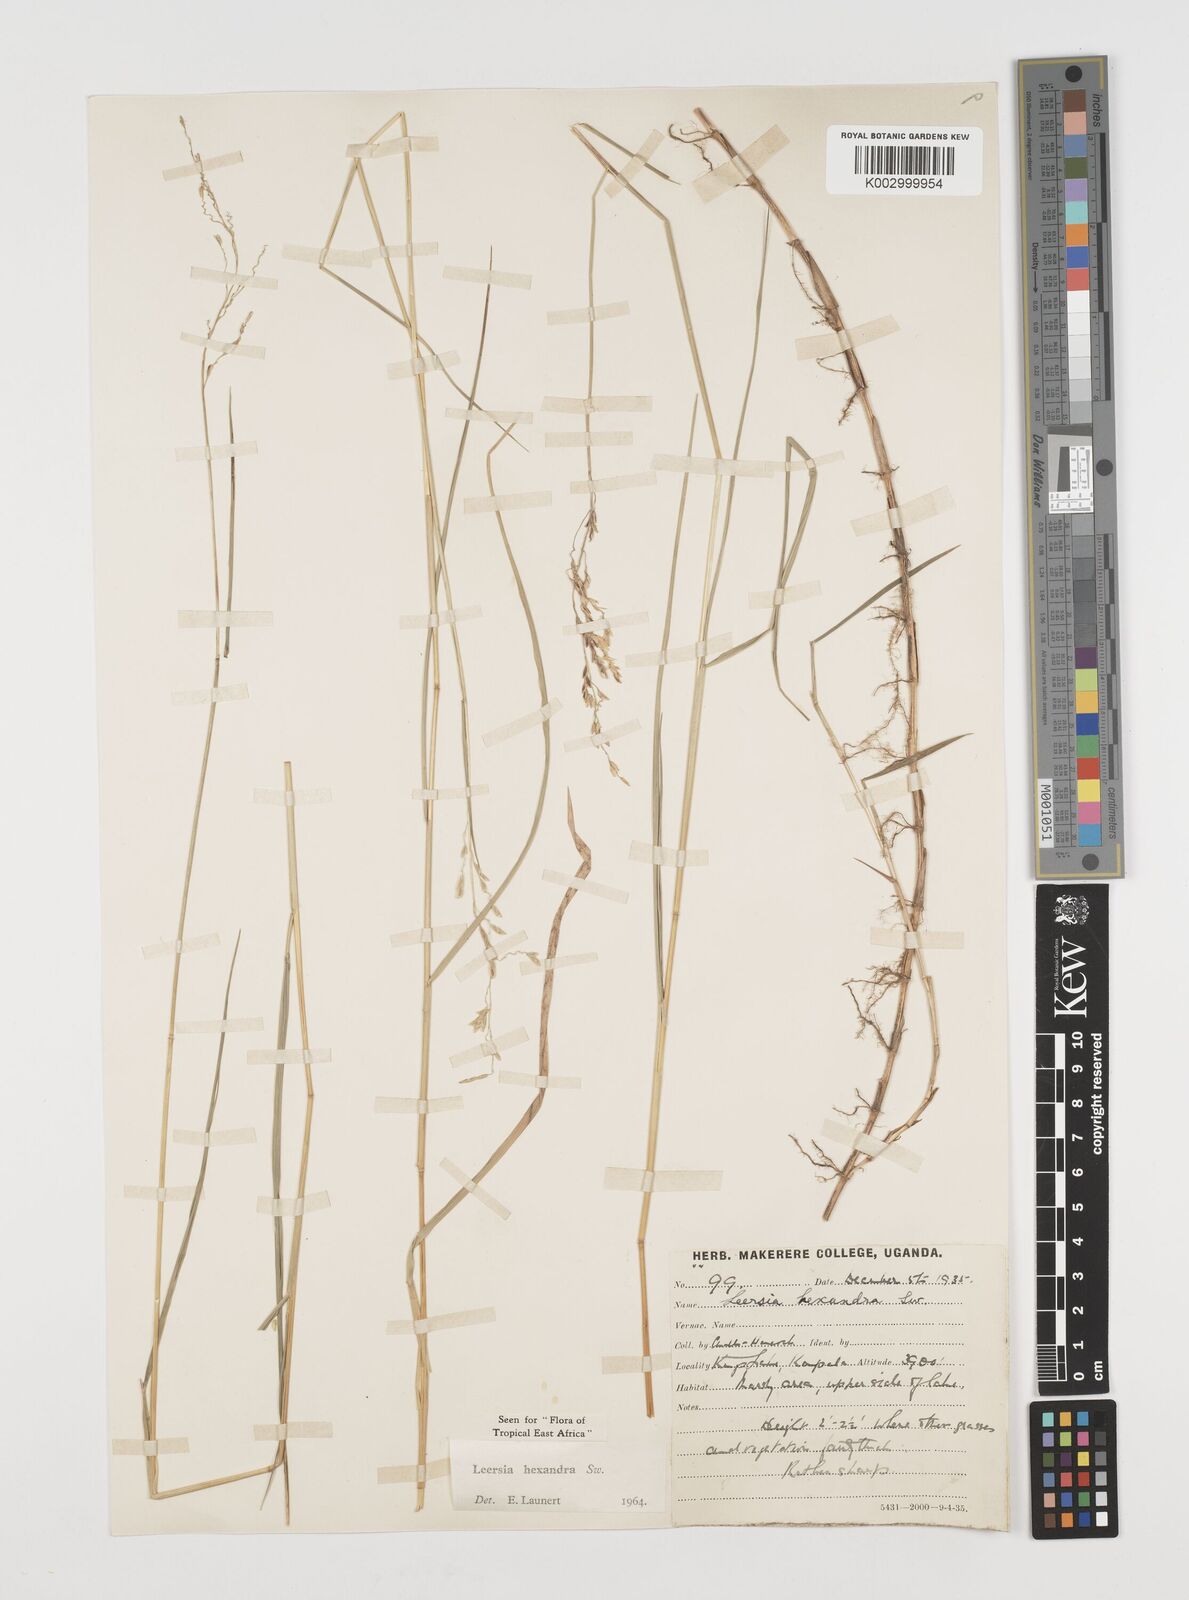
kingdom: Plantae
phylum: Tracheophyta
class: Liliopsida
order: Poales
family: Poaceae
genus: Leersia
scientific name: Leersia hexandra
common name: Southern cut grass
